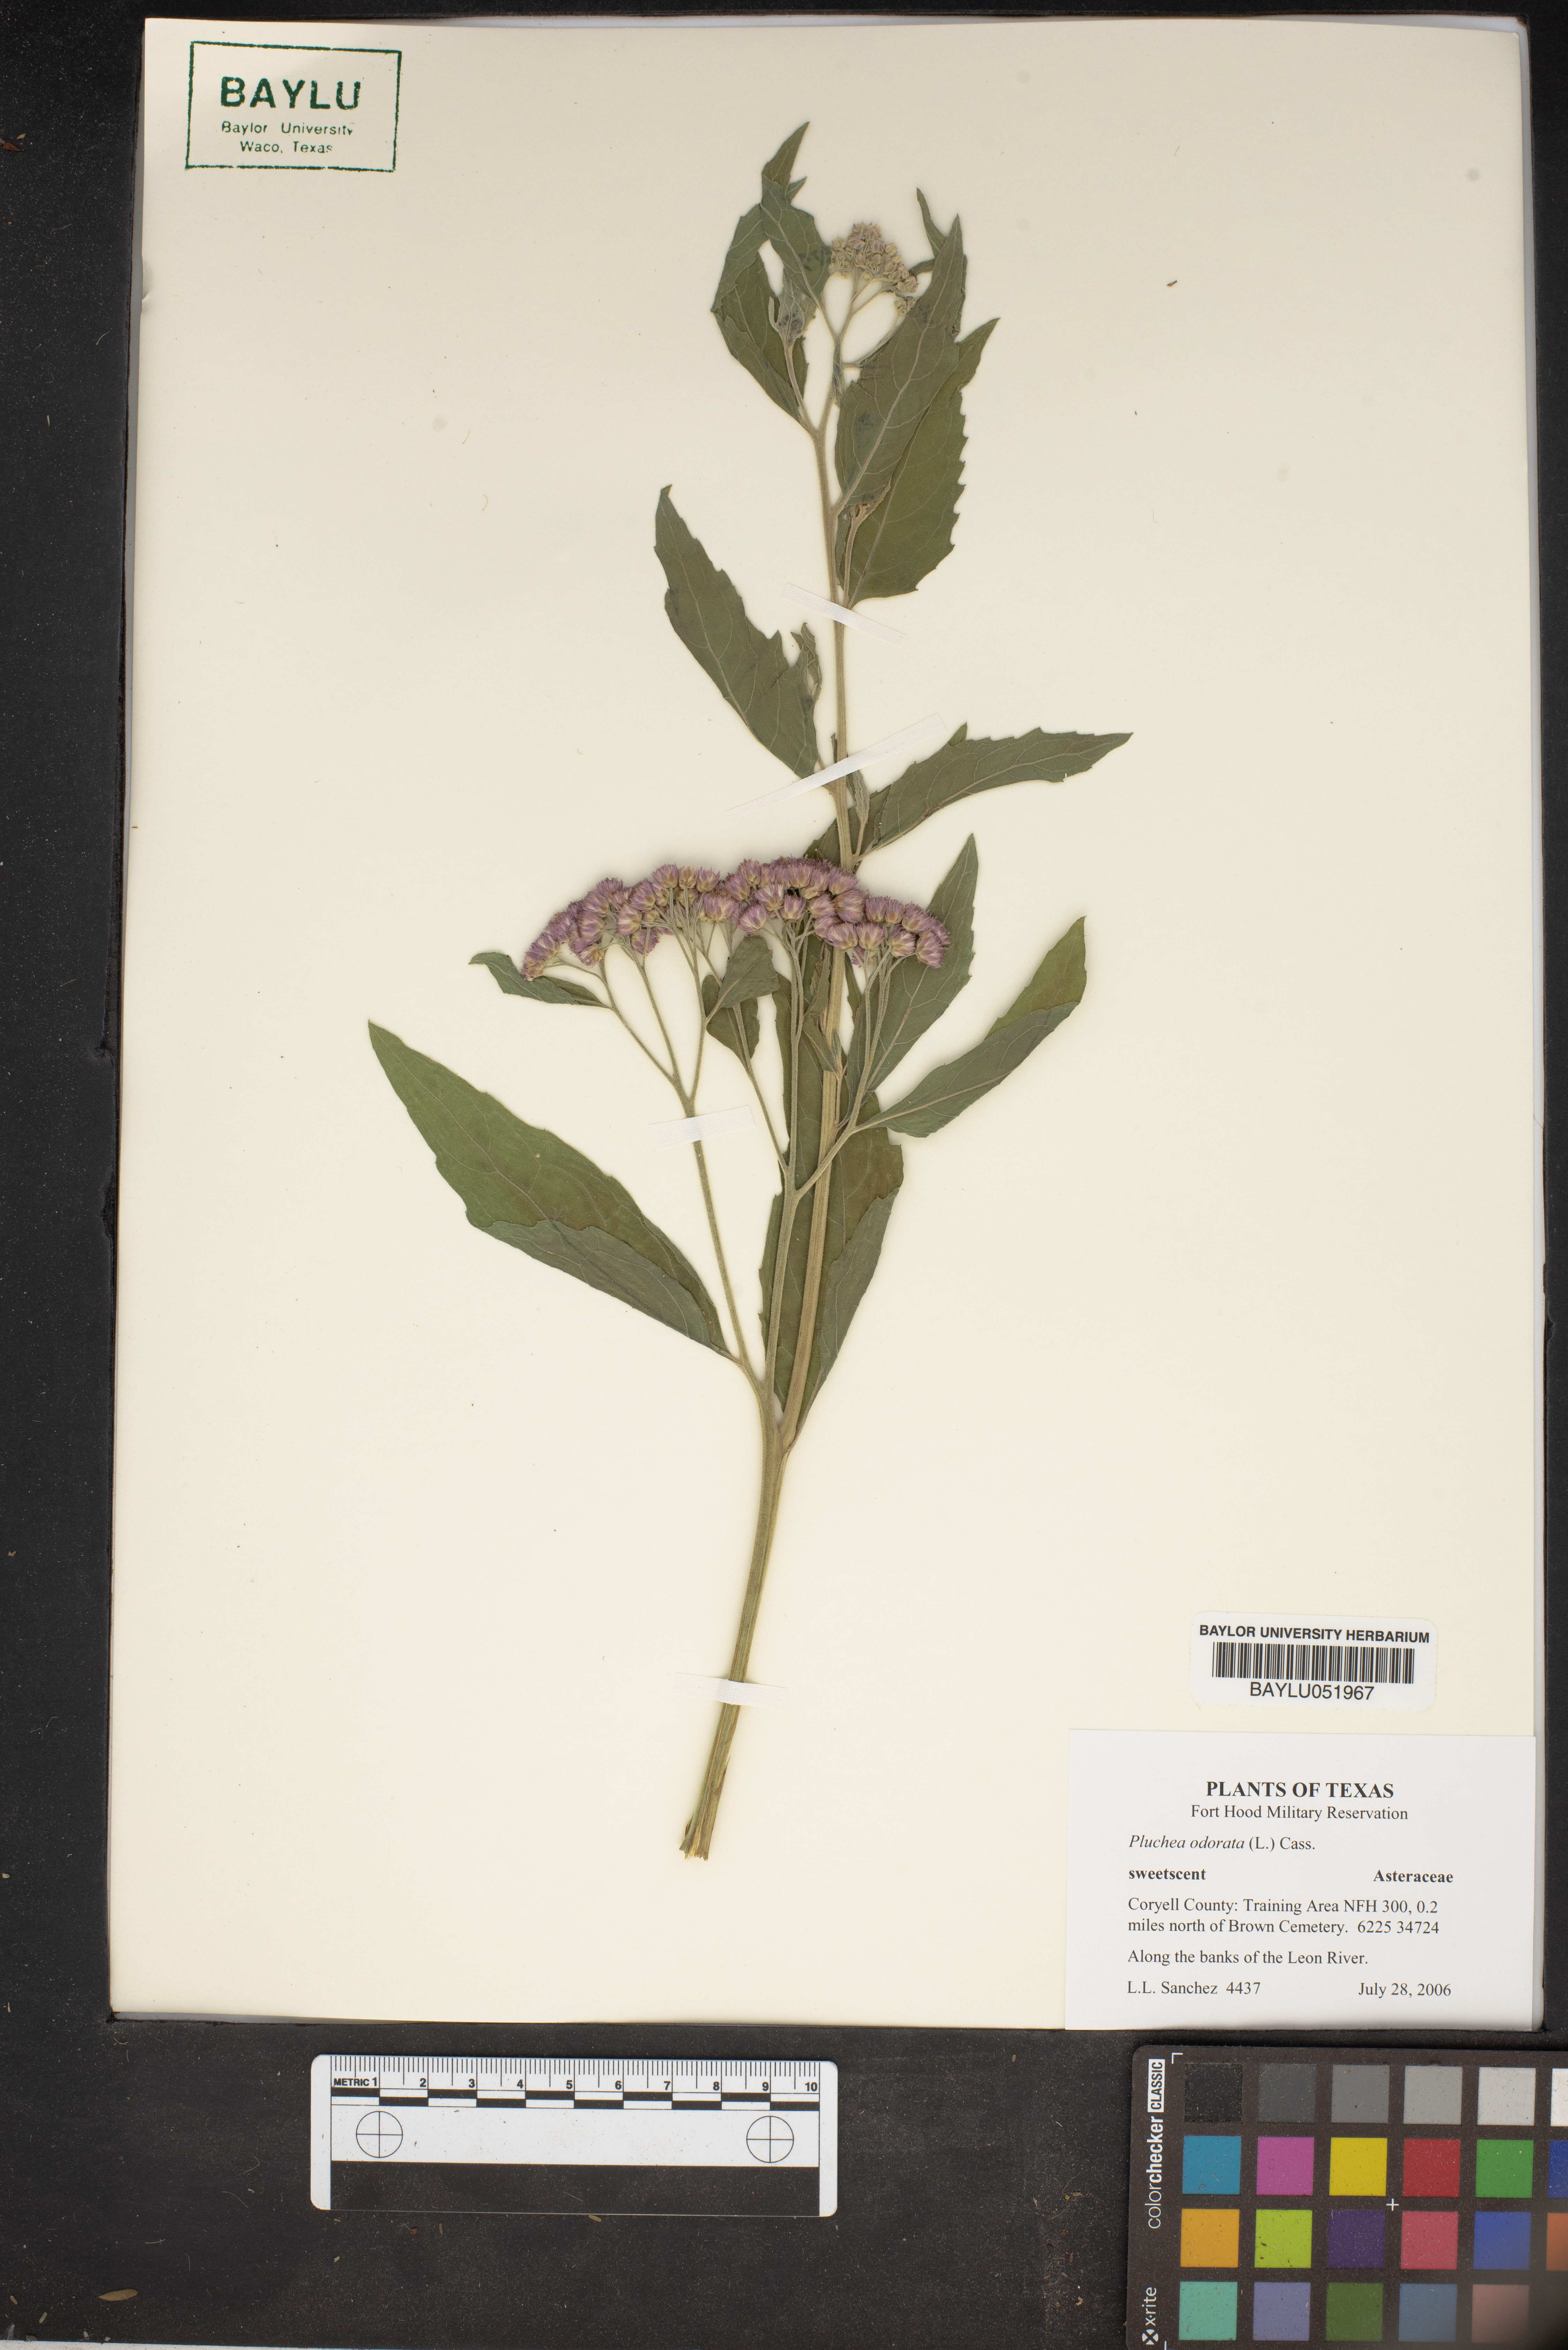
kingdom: Plantae
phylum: Tracheophyta
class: Magnoliopsida
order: Asterales
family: Asteraceae
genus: Pluchea
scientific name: Pluchea odorata
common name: Saltmarsh fleabane
